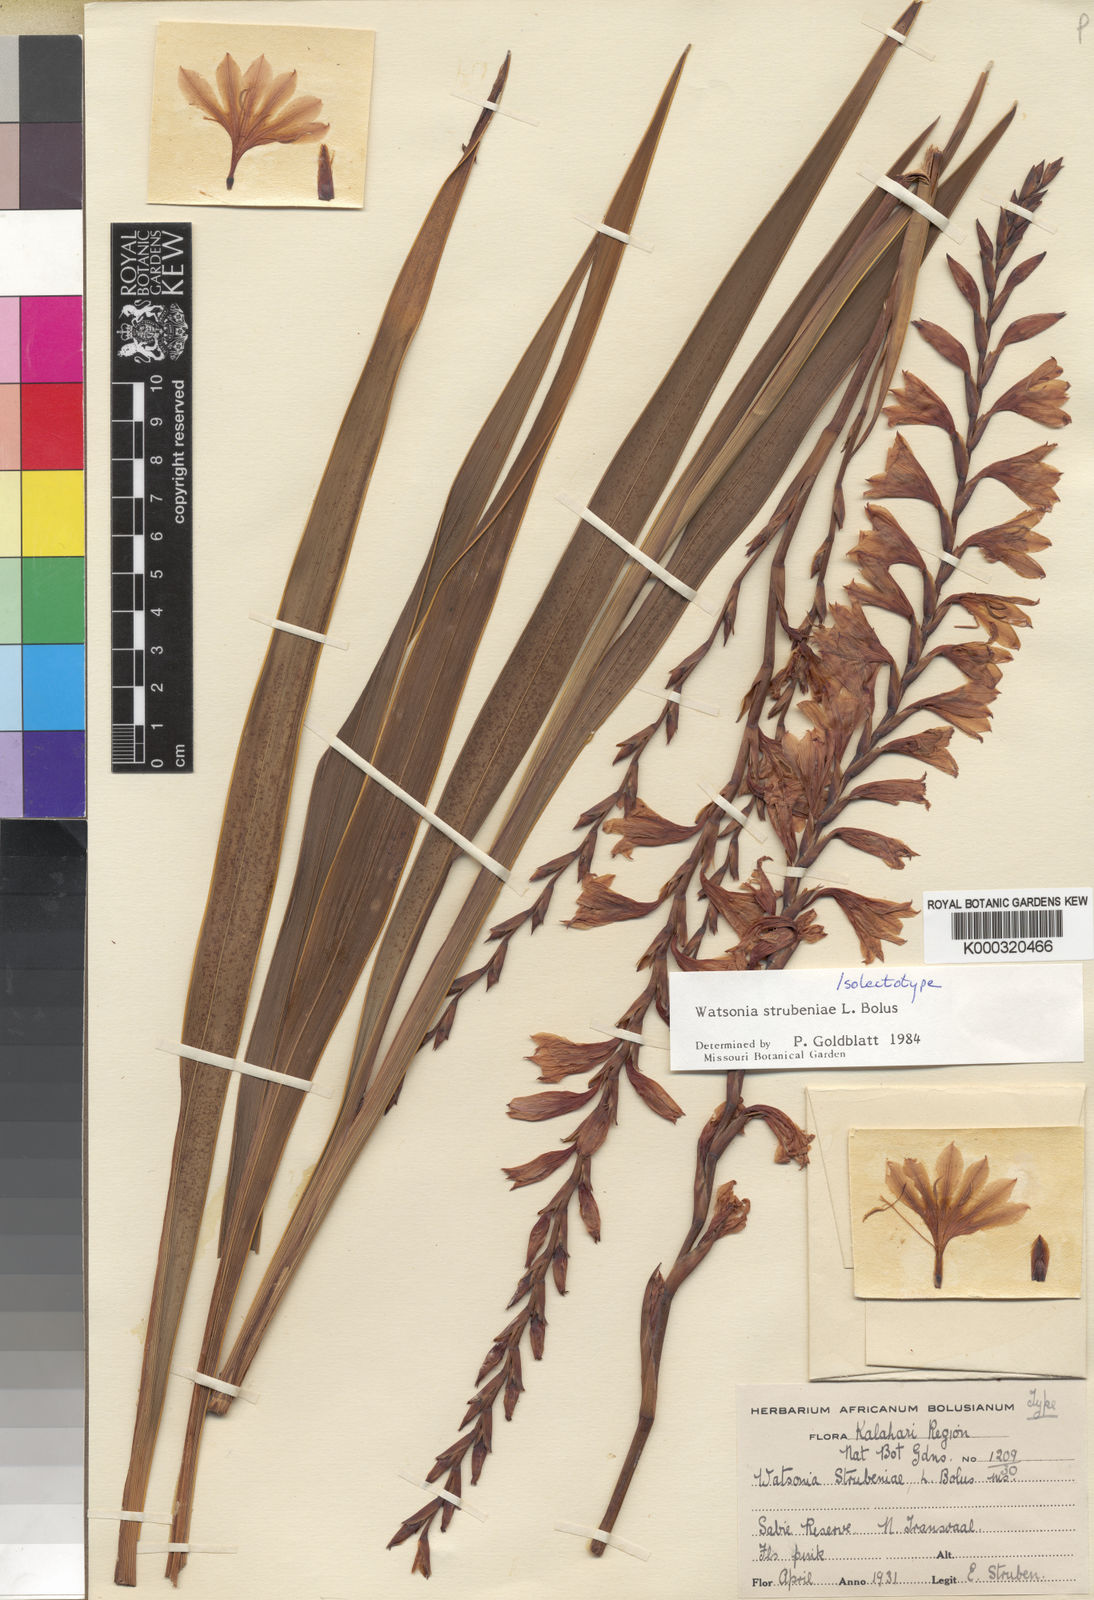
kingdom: Plantae
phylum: Tracheophyta
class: Liliopsida
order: Asparagales
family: Iridaceae
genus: Watsonia
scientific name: Watsonia strubeniae
